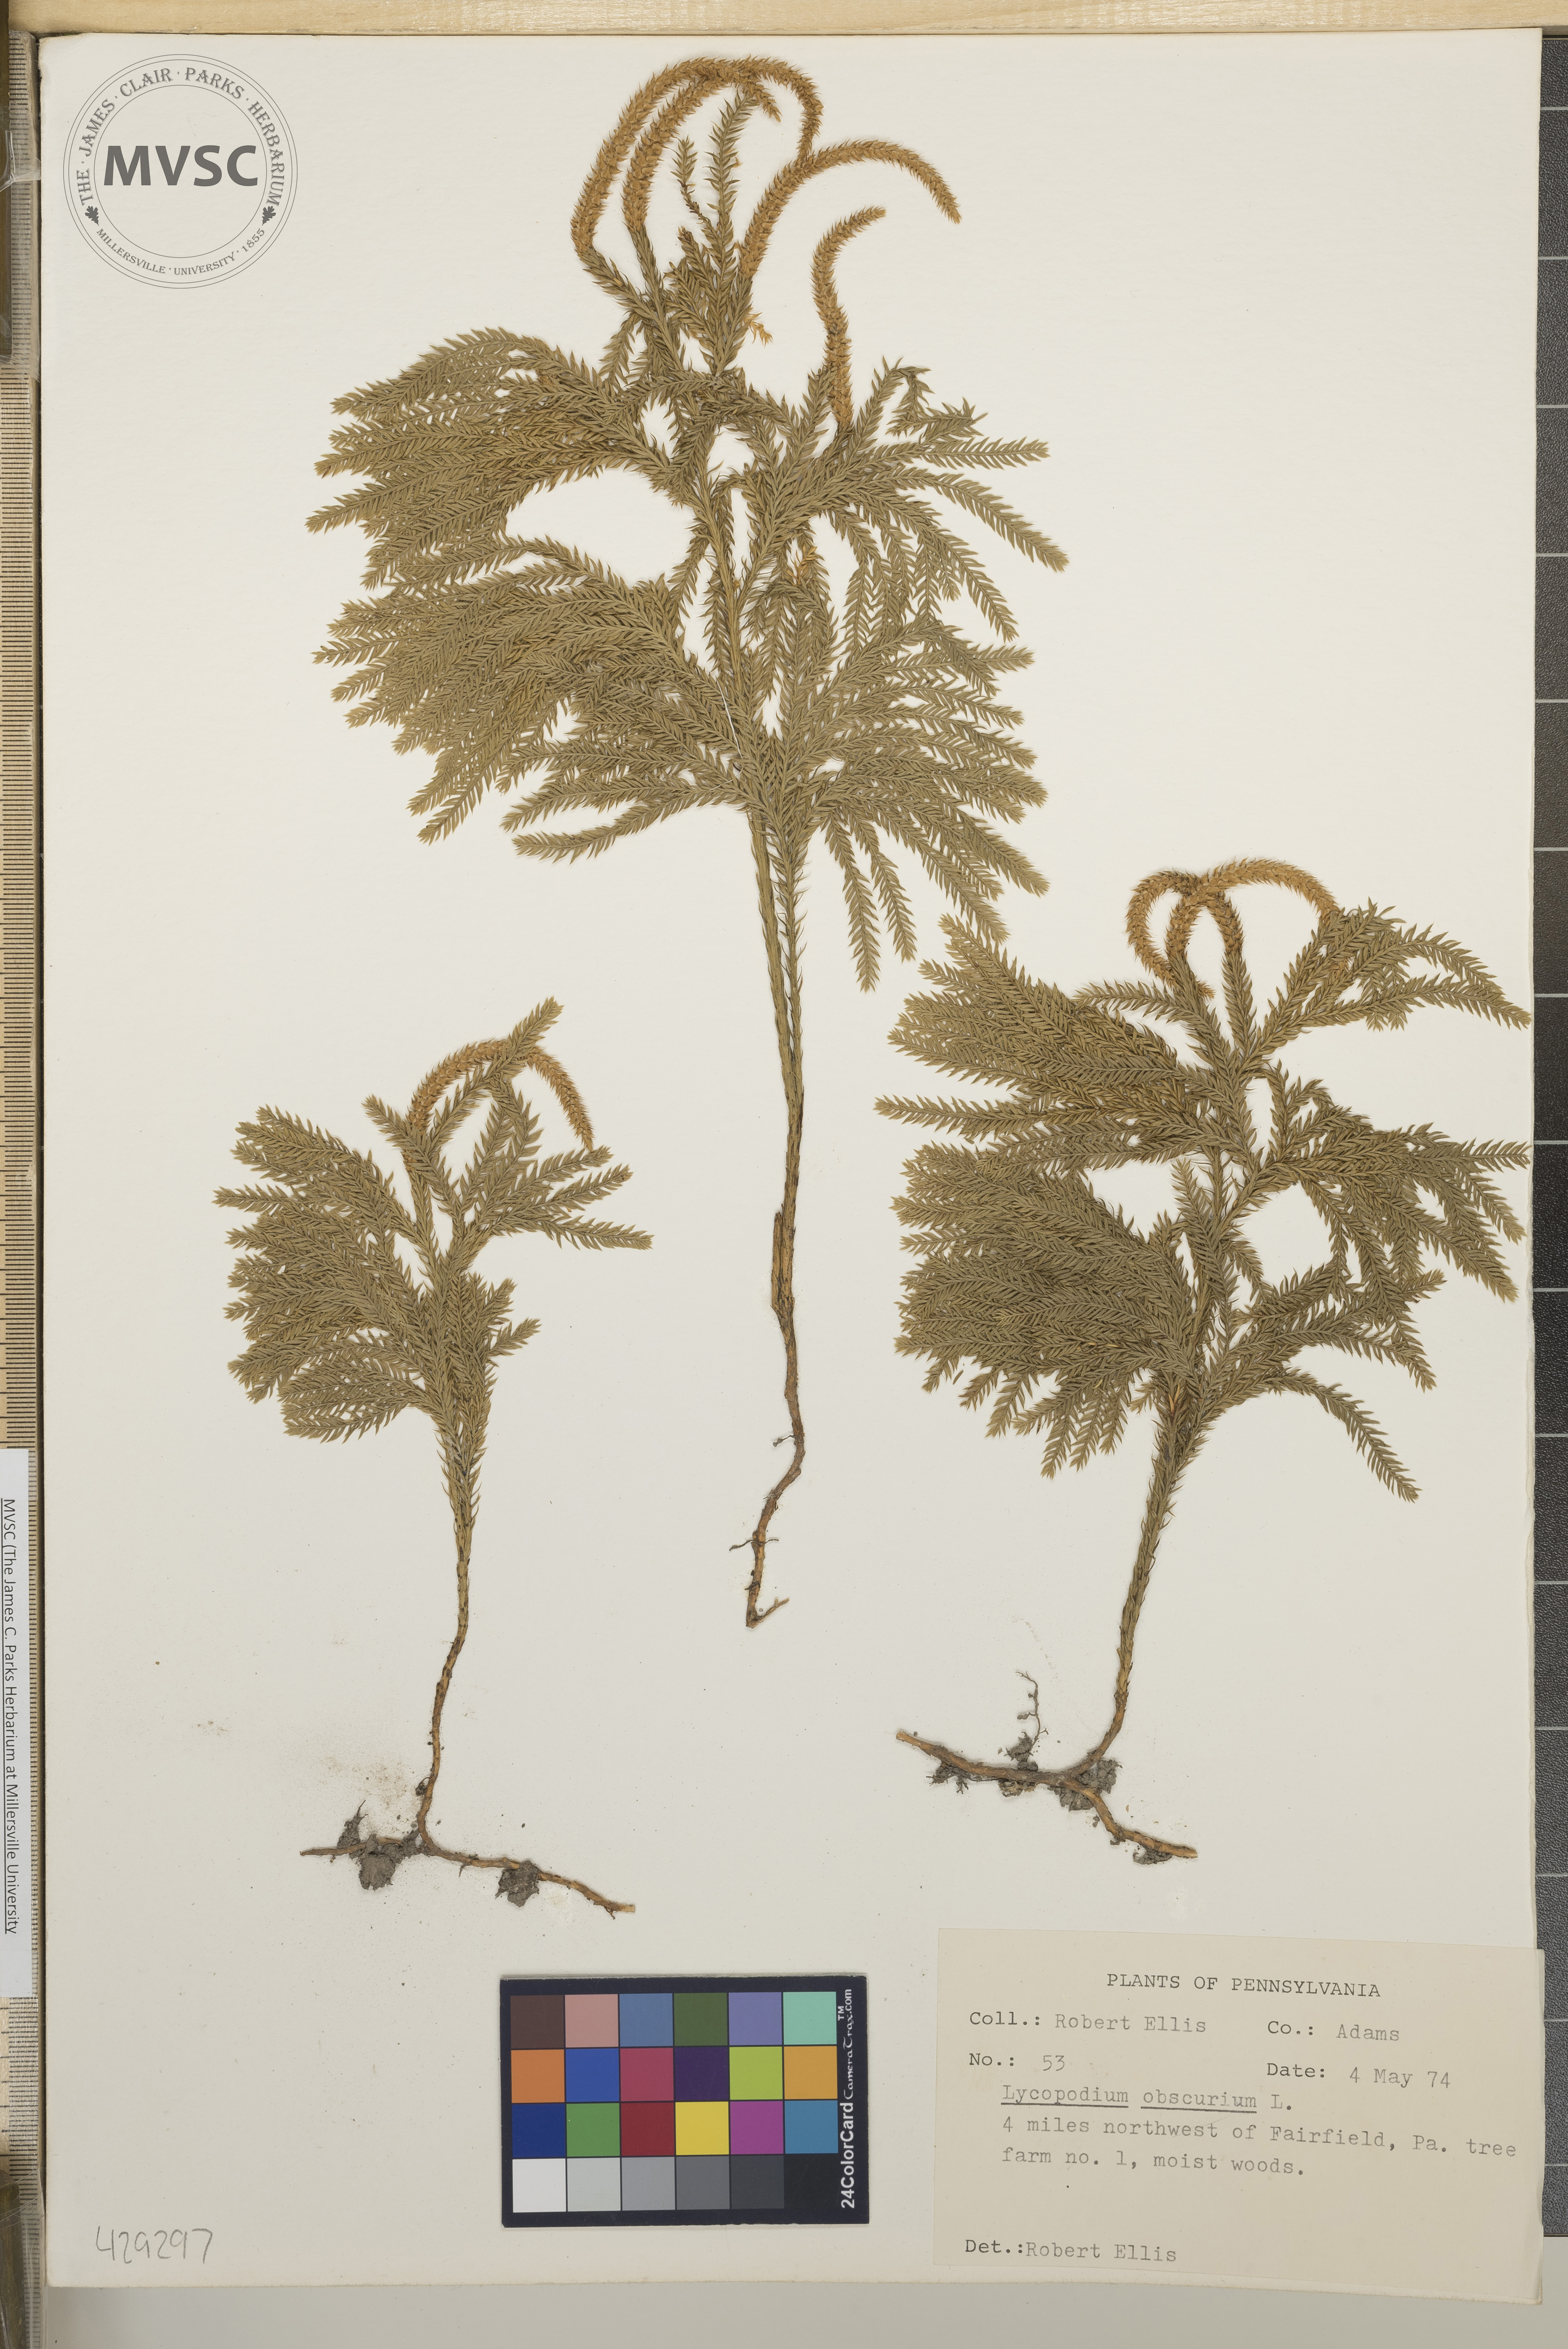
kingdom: Plantae
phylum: Tracheophyta
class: Lycopodiopsida
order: Lycopodiales
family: Lycopodiaceae
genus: Dendrolycopodium
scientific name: Dendrolycopodium obscurum
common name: Common ground-pine
